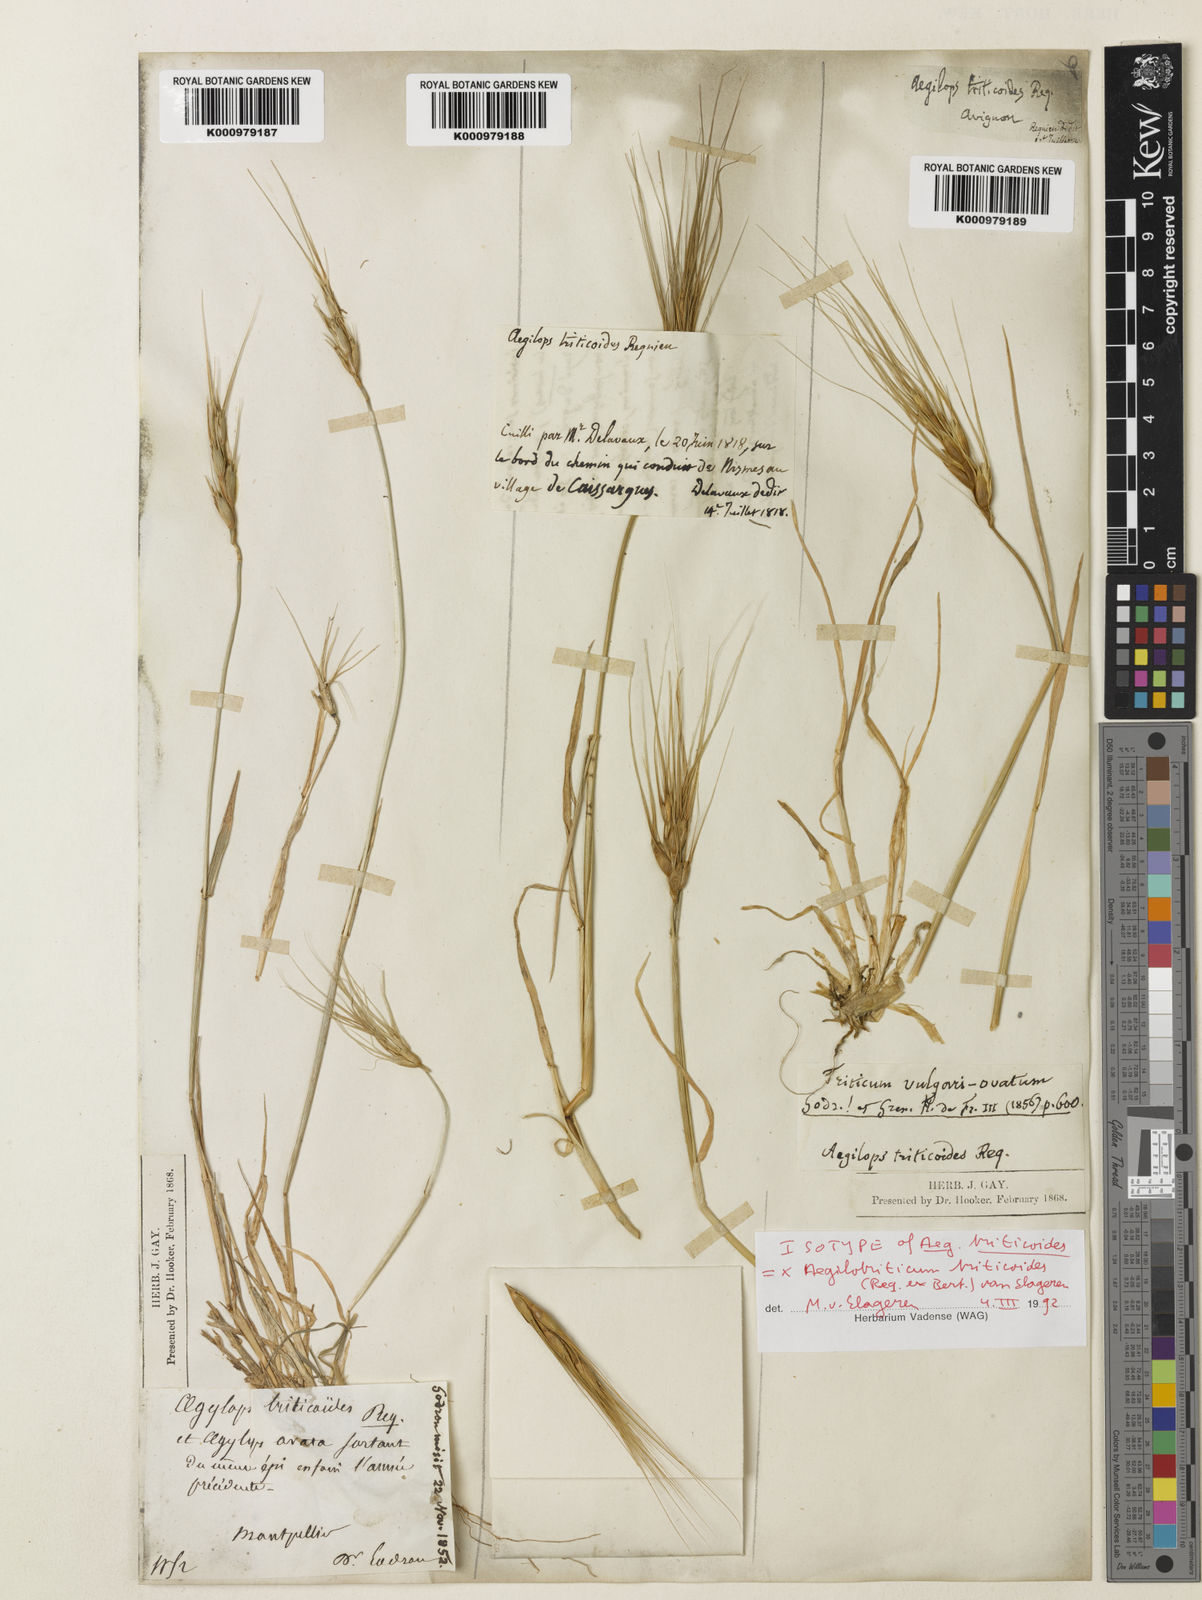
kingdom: Plantae
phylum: Tracheophyta
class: Liliopsida
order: Poales
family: Poaceae
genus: Aegilotriticum
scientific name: Aegilotriticum triticoides
